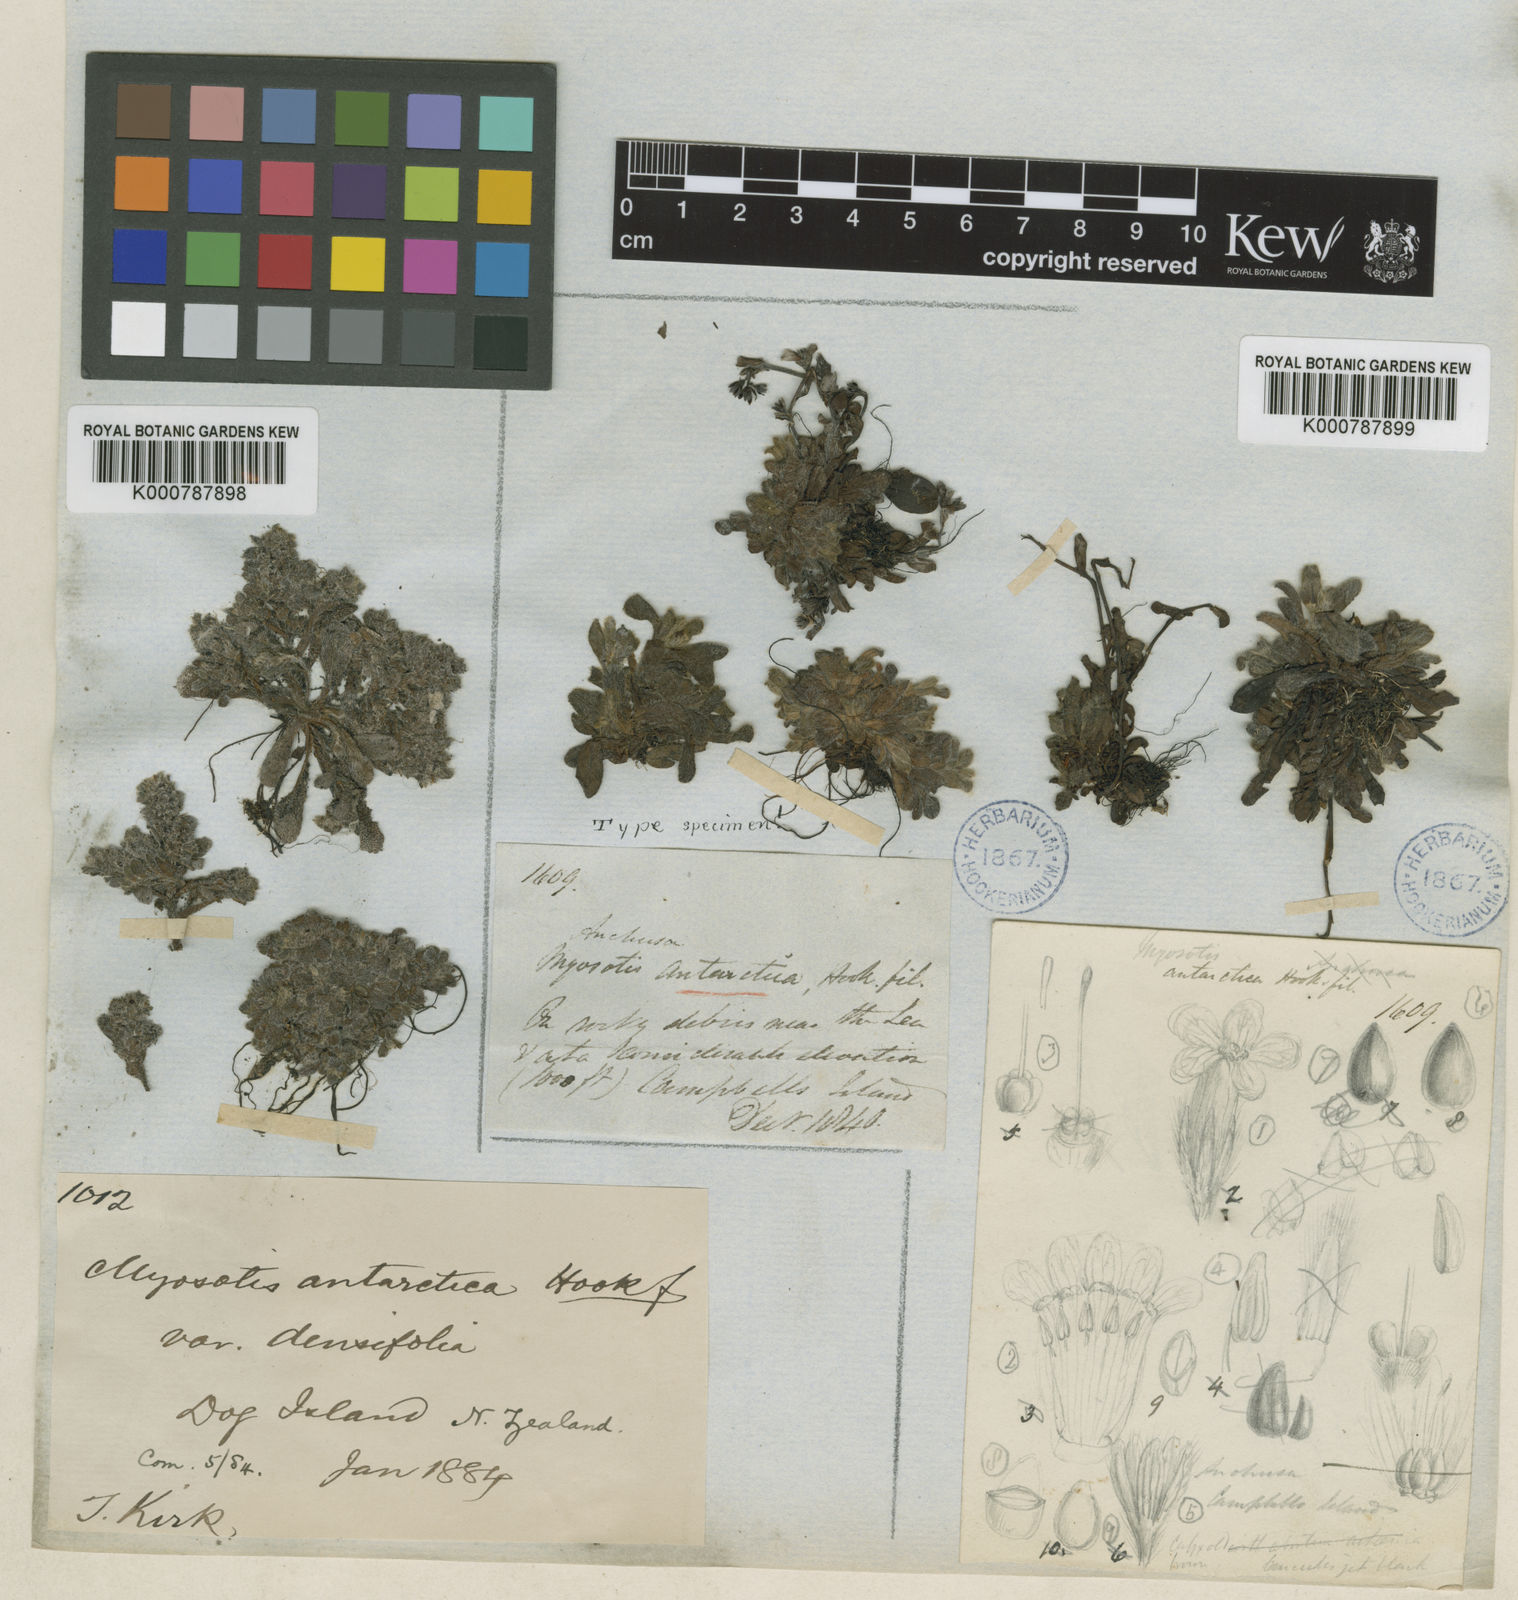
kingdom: Plantae
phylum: Tracheophyta
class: Magnoliopsida
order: Boraginales
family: Boraginaceae
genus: Myosotis
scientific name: Myosotis antarctica
